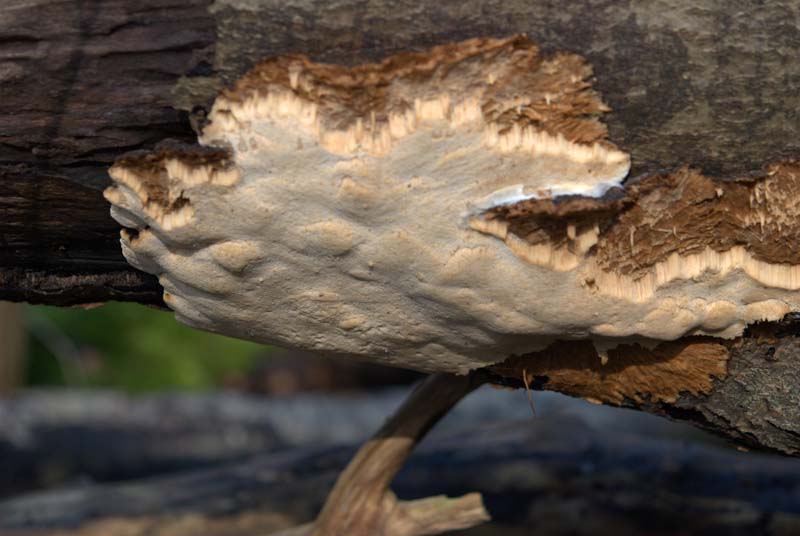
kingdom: Fungi
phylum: Basidiomycota
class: Agaricomycetes
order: Polyporales
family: Ischnodermataceae
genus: Ischnoderma
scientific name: Ischnoderma resinosum
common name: løv-tjæreporesvamp
